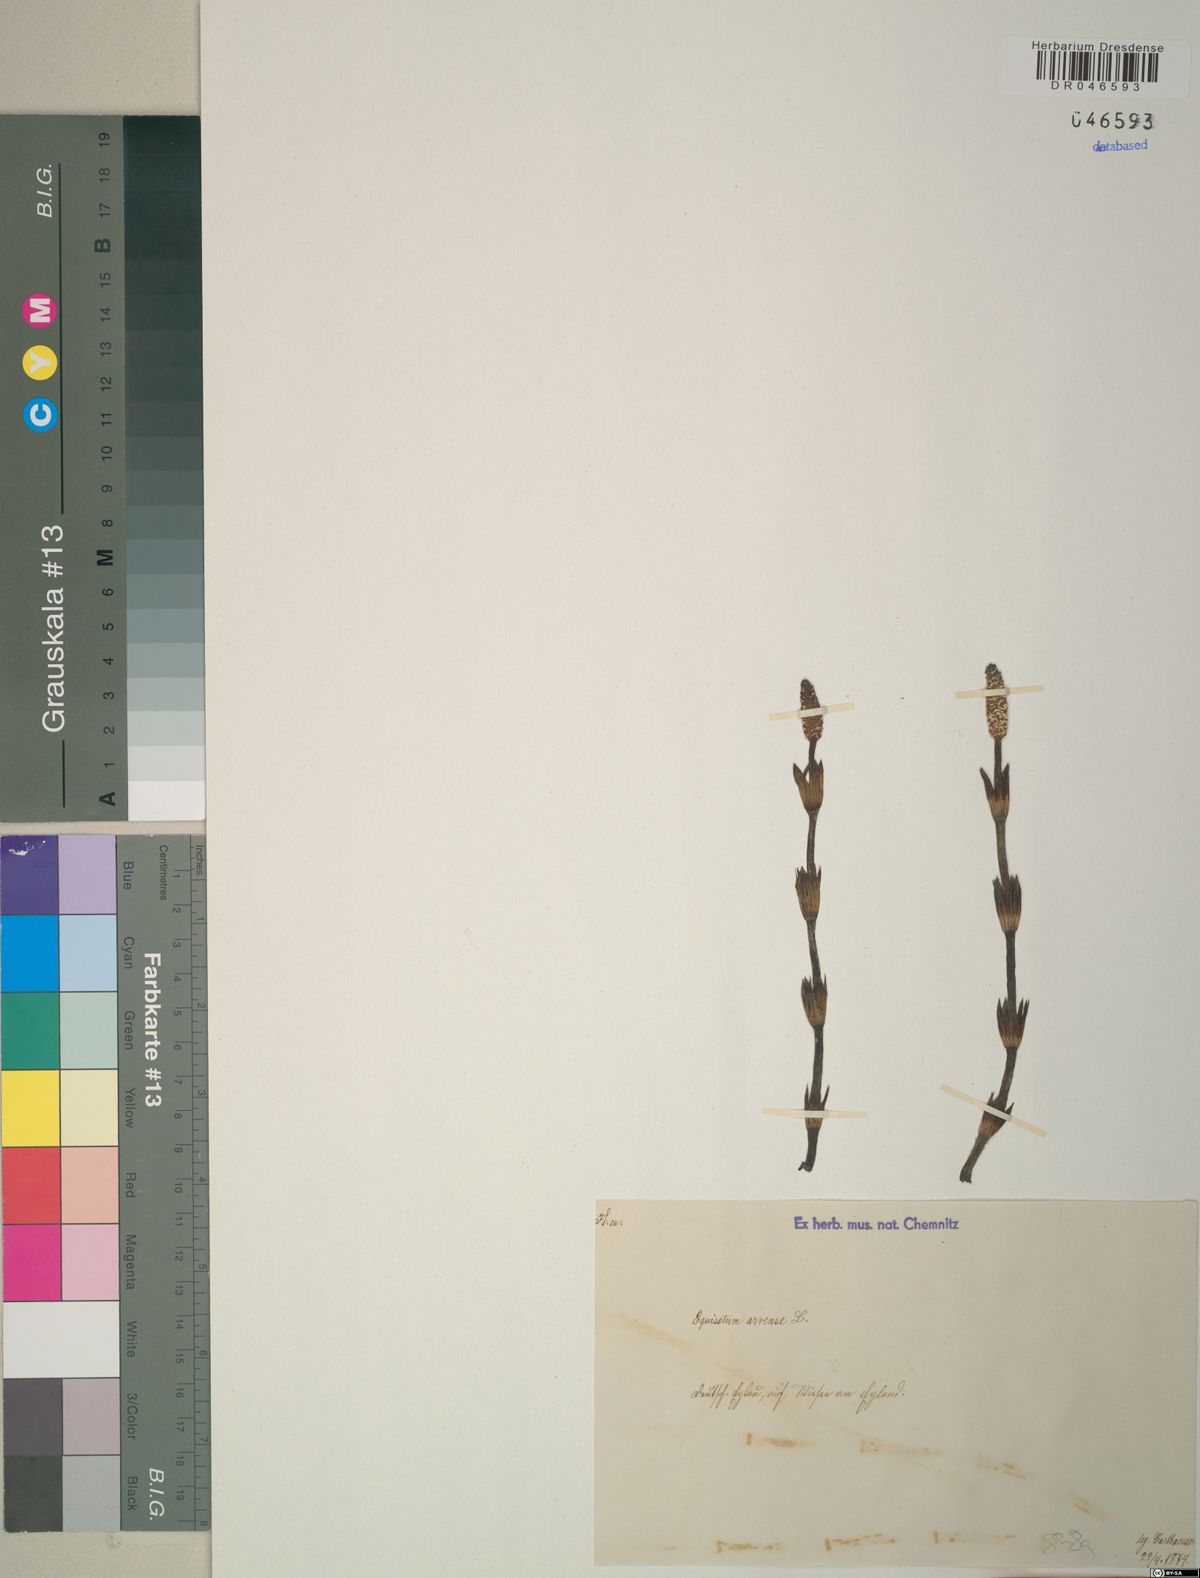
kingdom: Plantae
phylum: Tracheophyta
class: Polypodiopsida
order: Equisetales
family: Equisetaceae
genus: Equisetum
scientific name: Equisetum arvense
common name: Field horsetail
